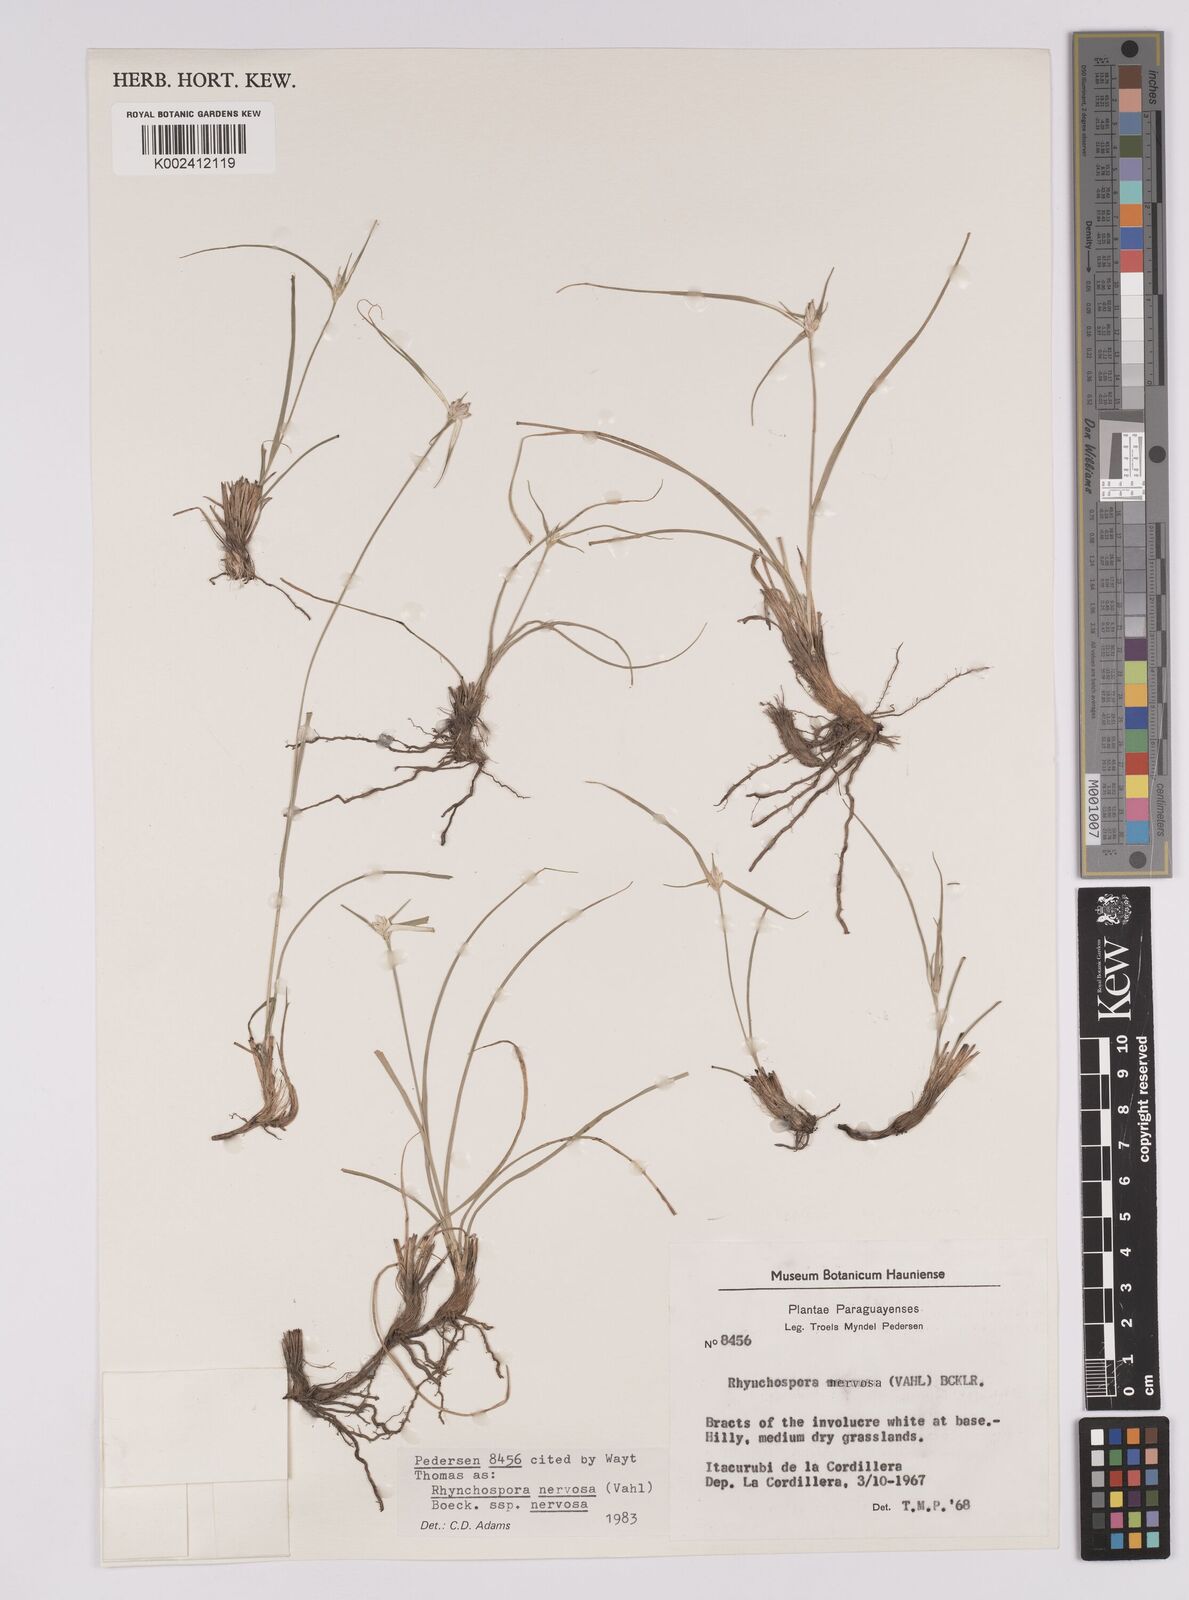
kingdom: Plantae
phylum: Tracheophyta
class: Liliopsida
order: Poales
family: Cyperaceae
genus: Rhynchospora
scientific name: Rhynchospora nervosa
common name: Star sedge
